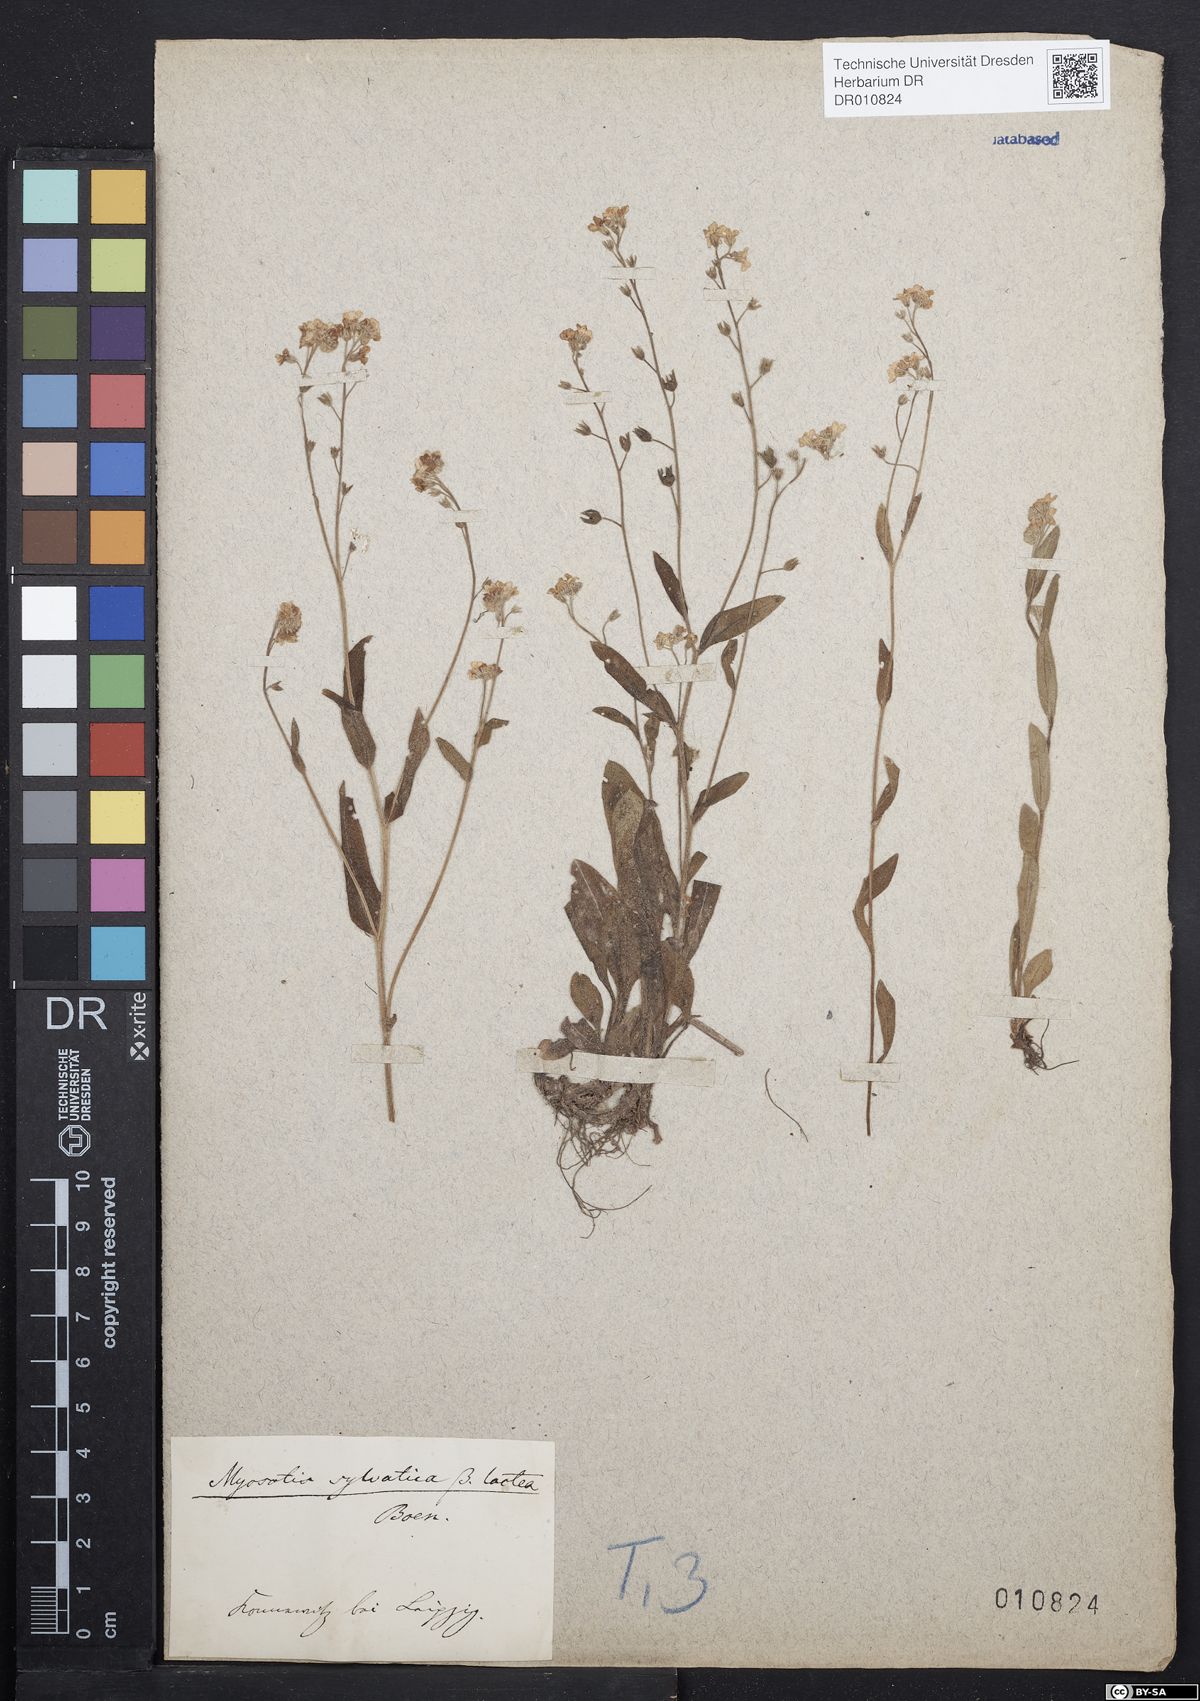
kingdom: Plantae
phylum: Tracheophyta
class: Magnoliopsida
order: Boraginales
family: Boraginaceae
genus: Myosotis
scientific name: Myosotis sylvatica
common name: Wood forget-me-not
